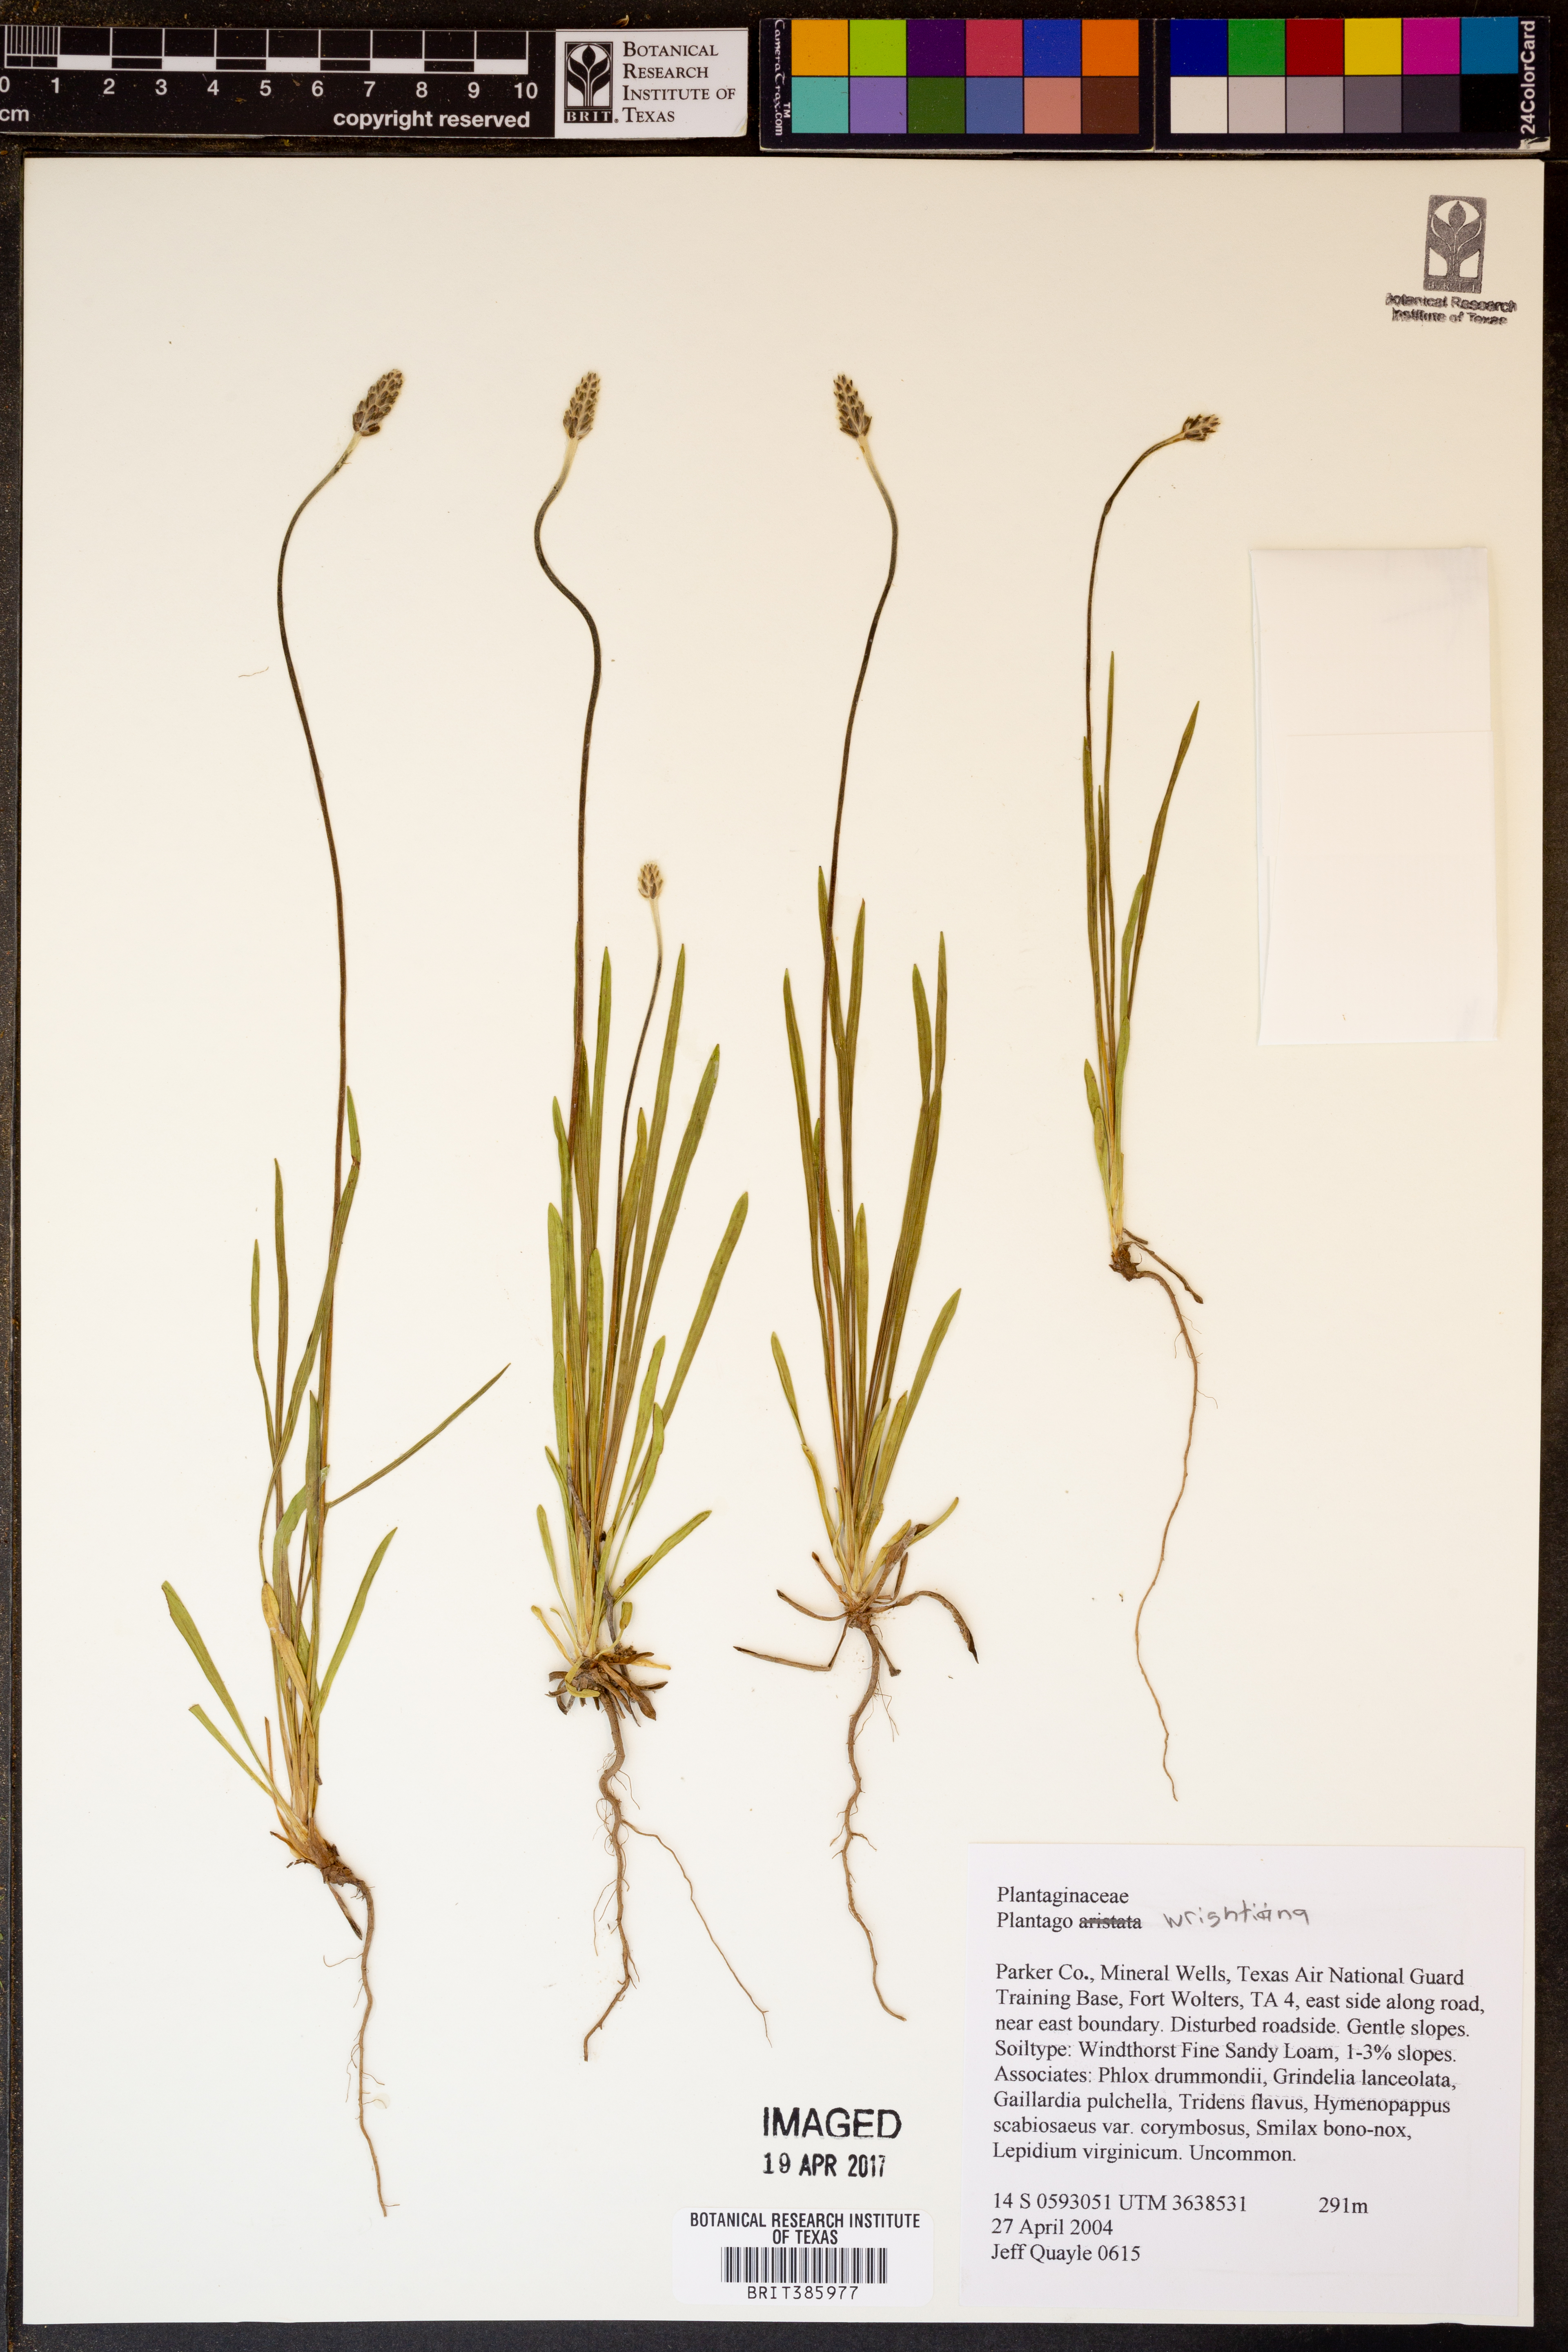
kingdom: Plantae
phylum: Tracheophyta
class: Magnoliopsida
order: Lamiales
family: Plantaginaceae
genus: Plantago
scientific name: Plantago wrightiana
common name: Wright's plantain
